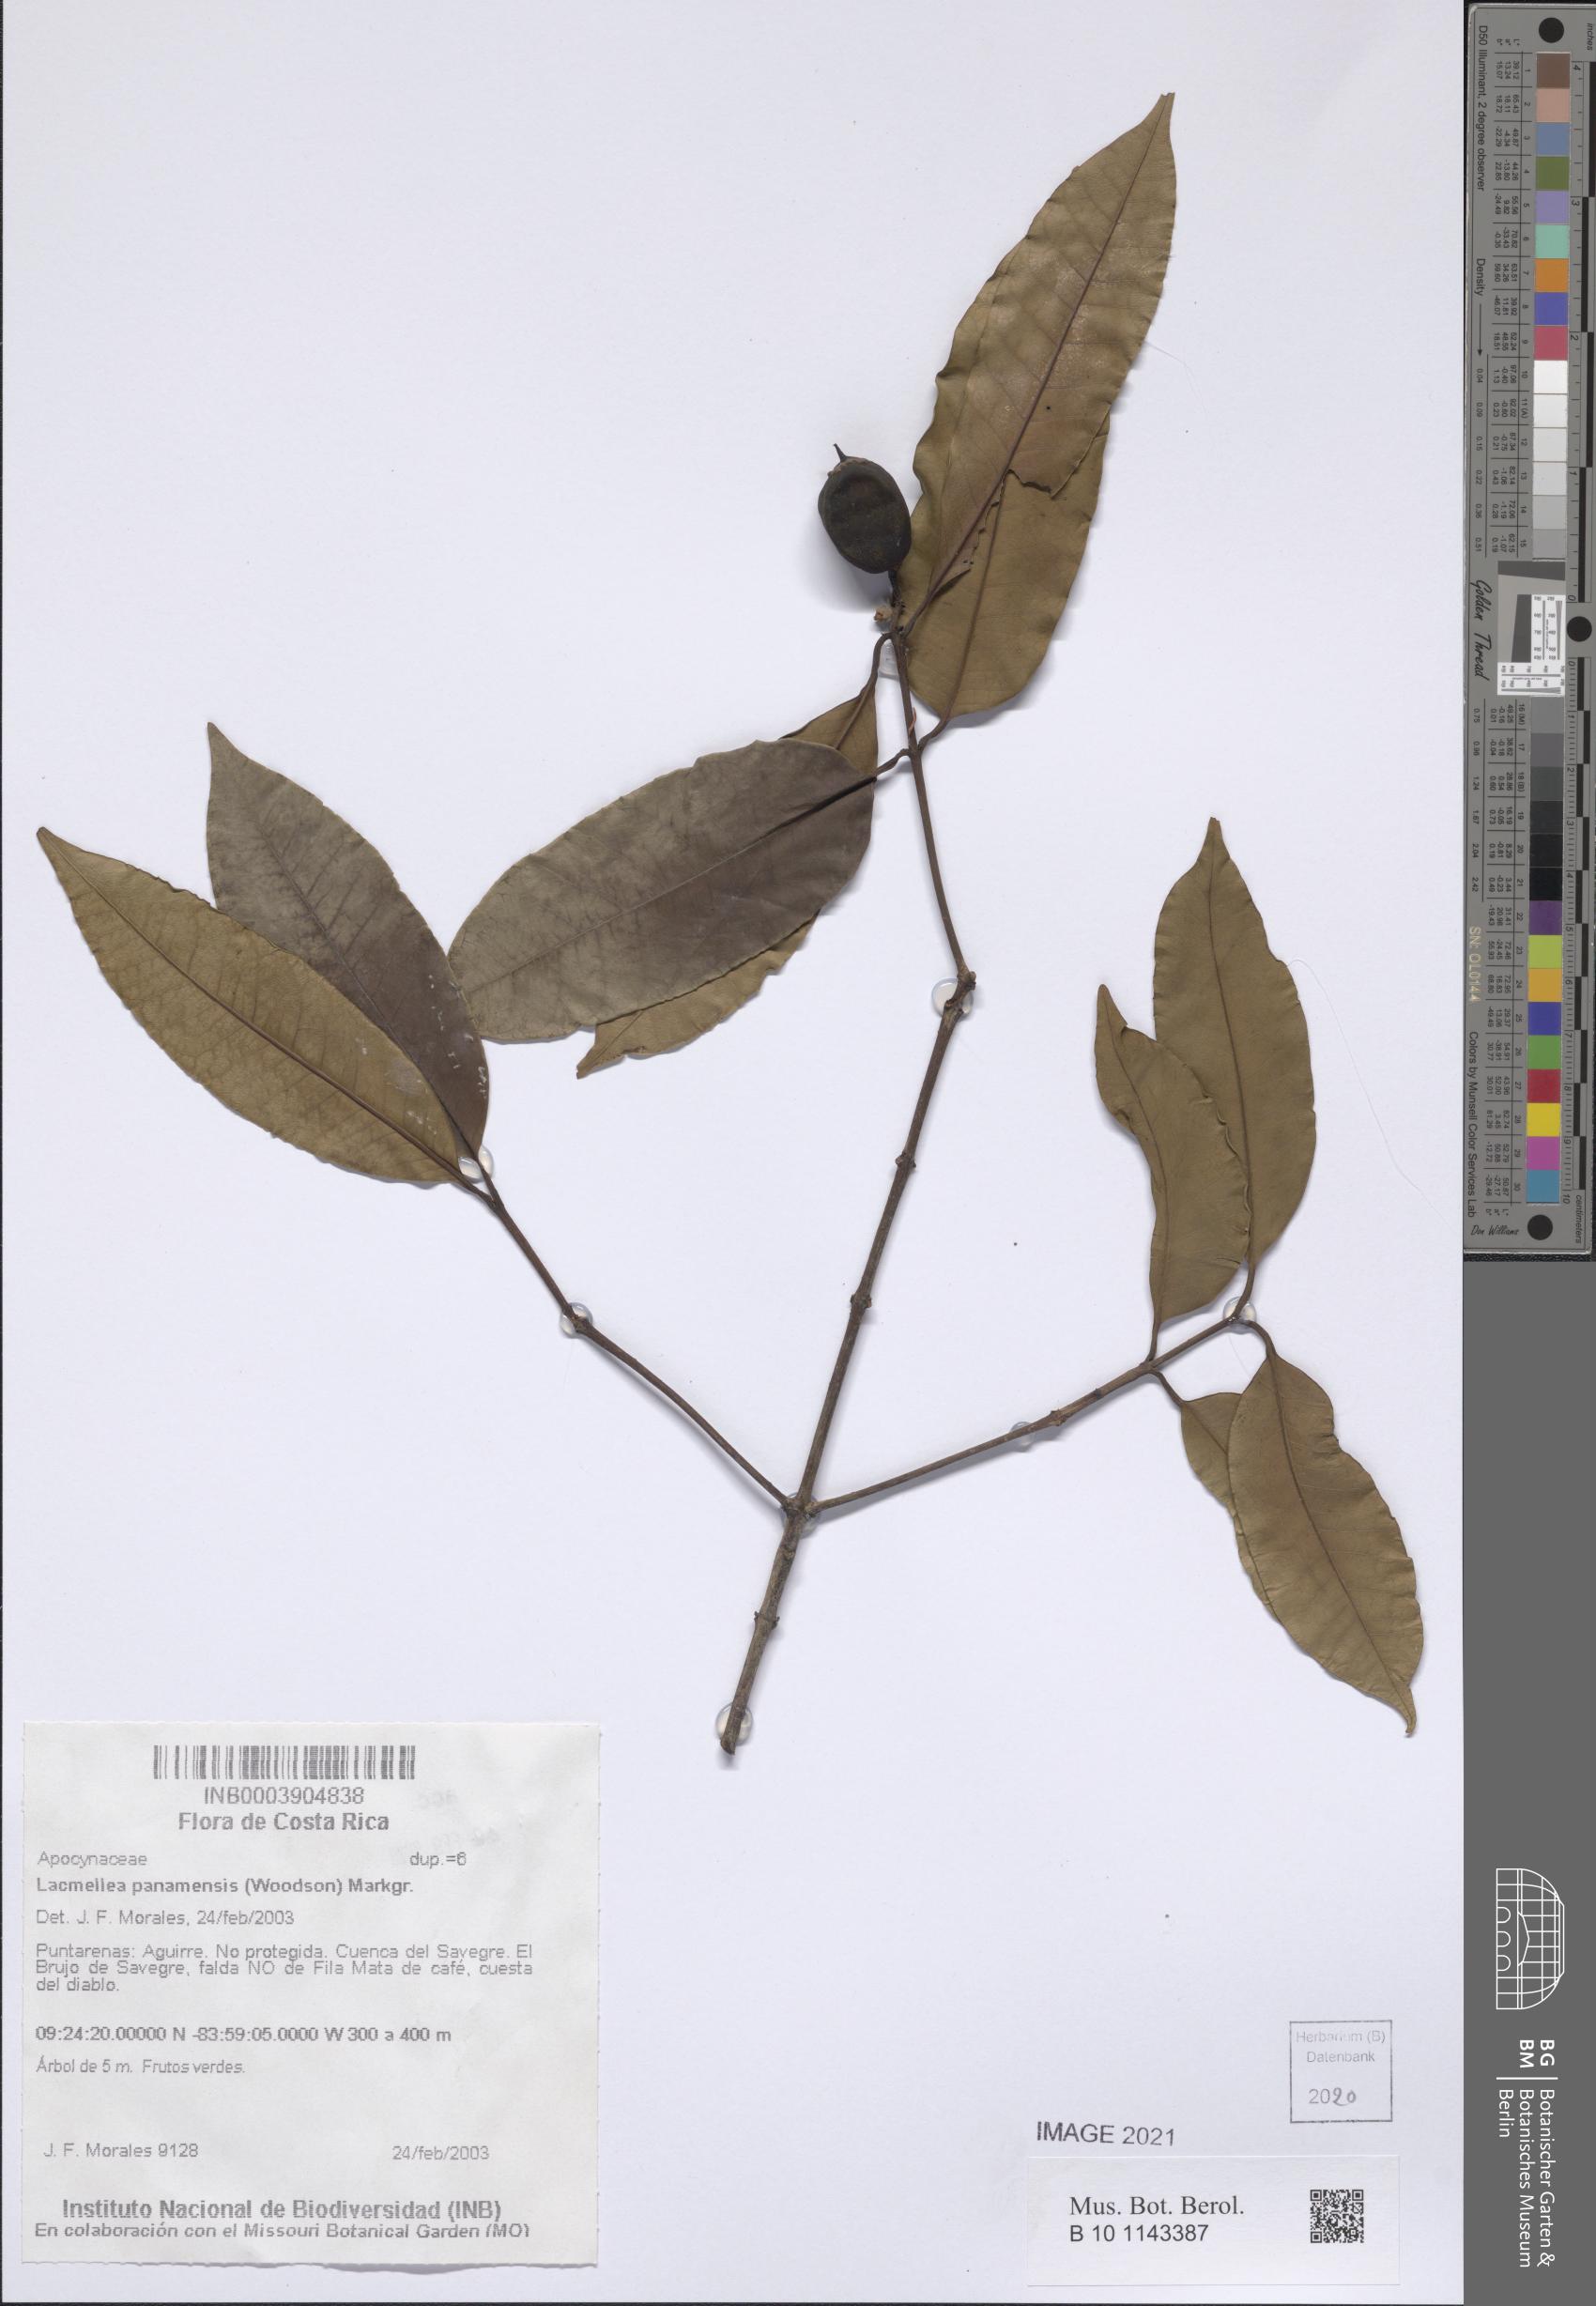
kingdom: Plantae
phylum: Tracheophyta
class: Magnoliopsida
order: Gentianales
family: Apocynaceae
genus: Lacmellea
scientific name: Lacmellea panamensis
